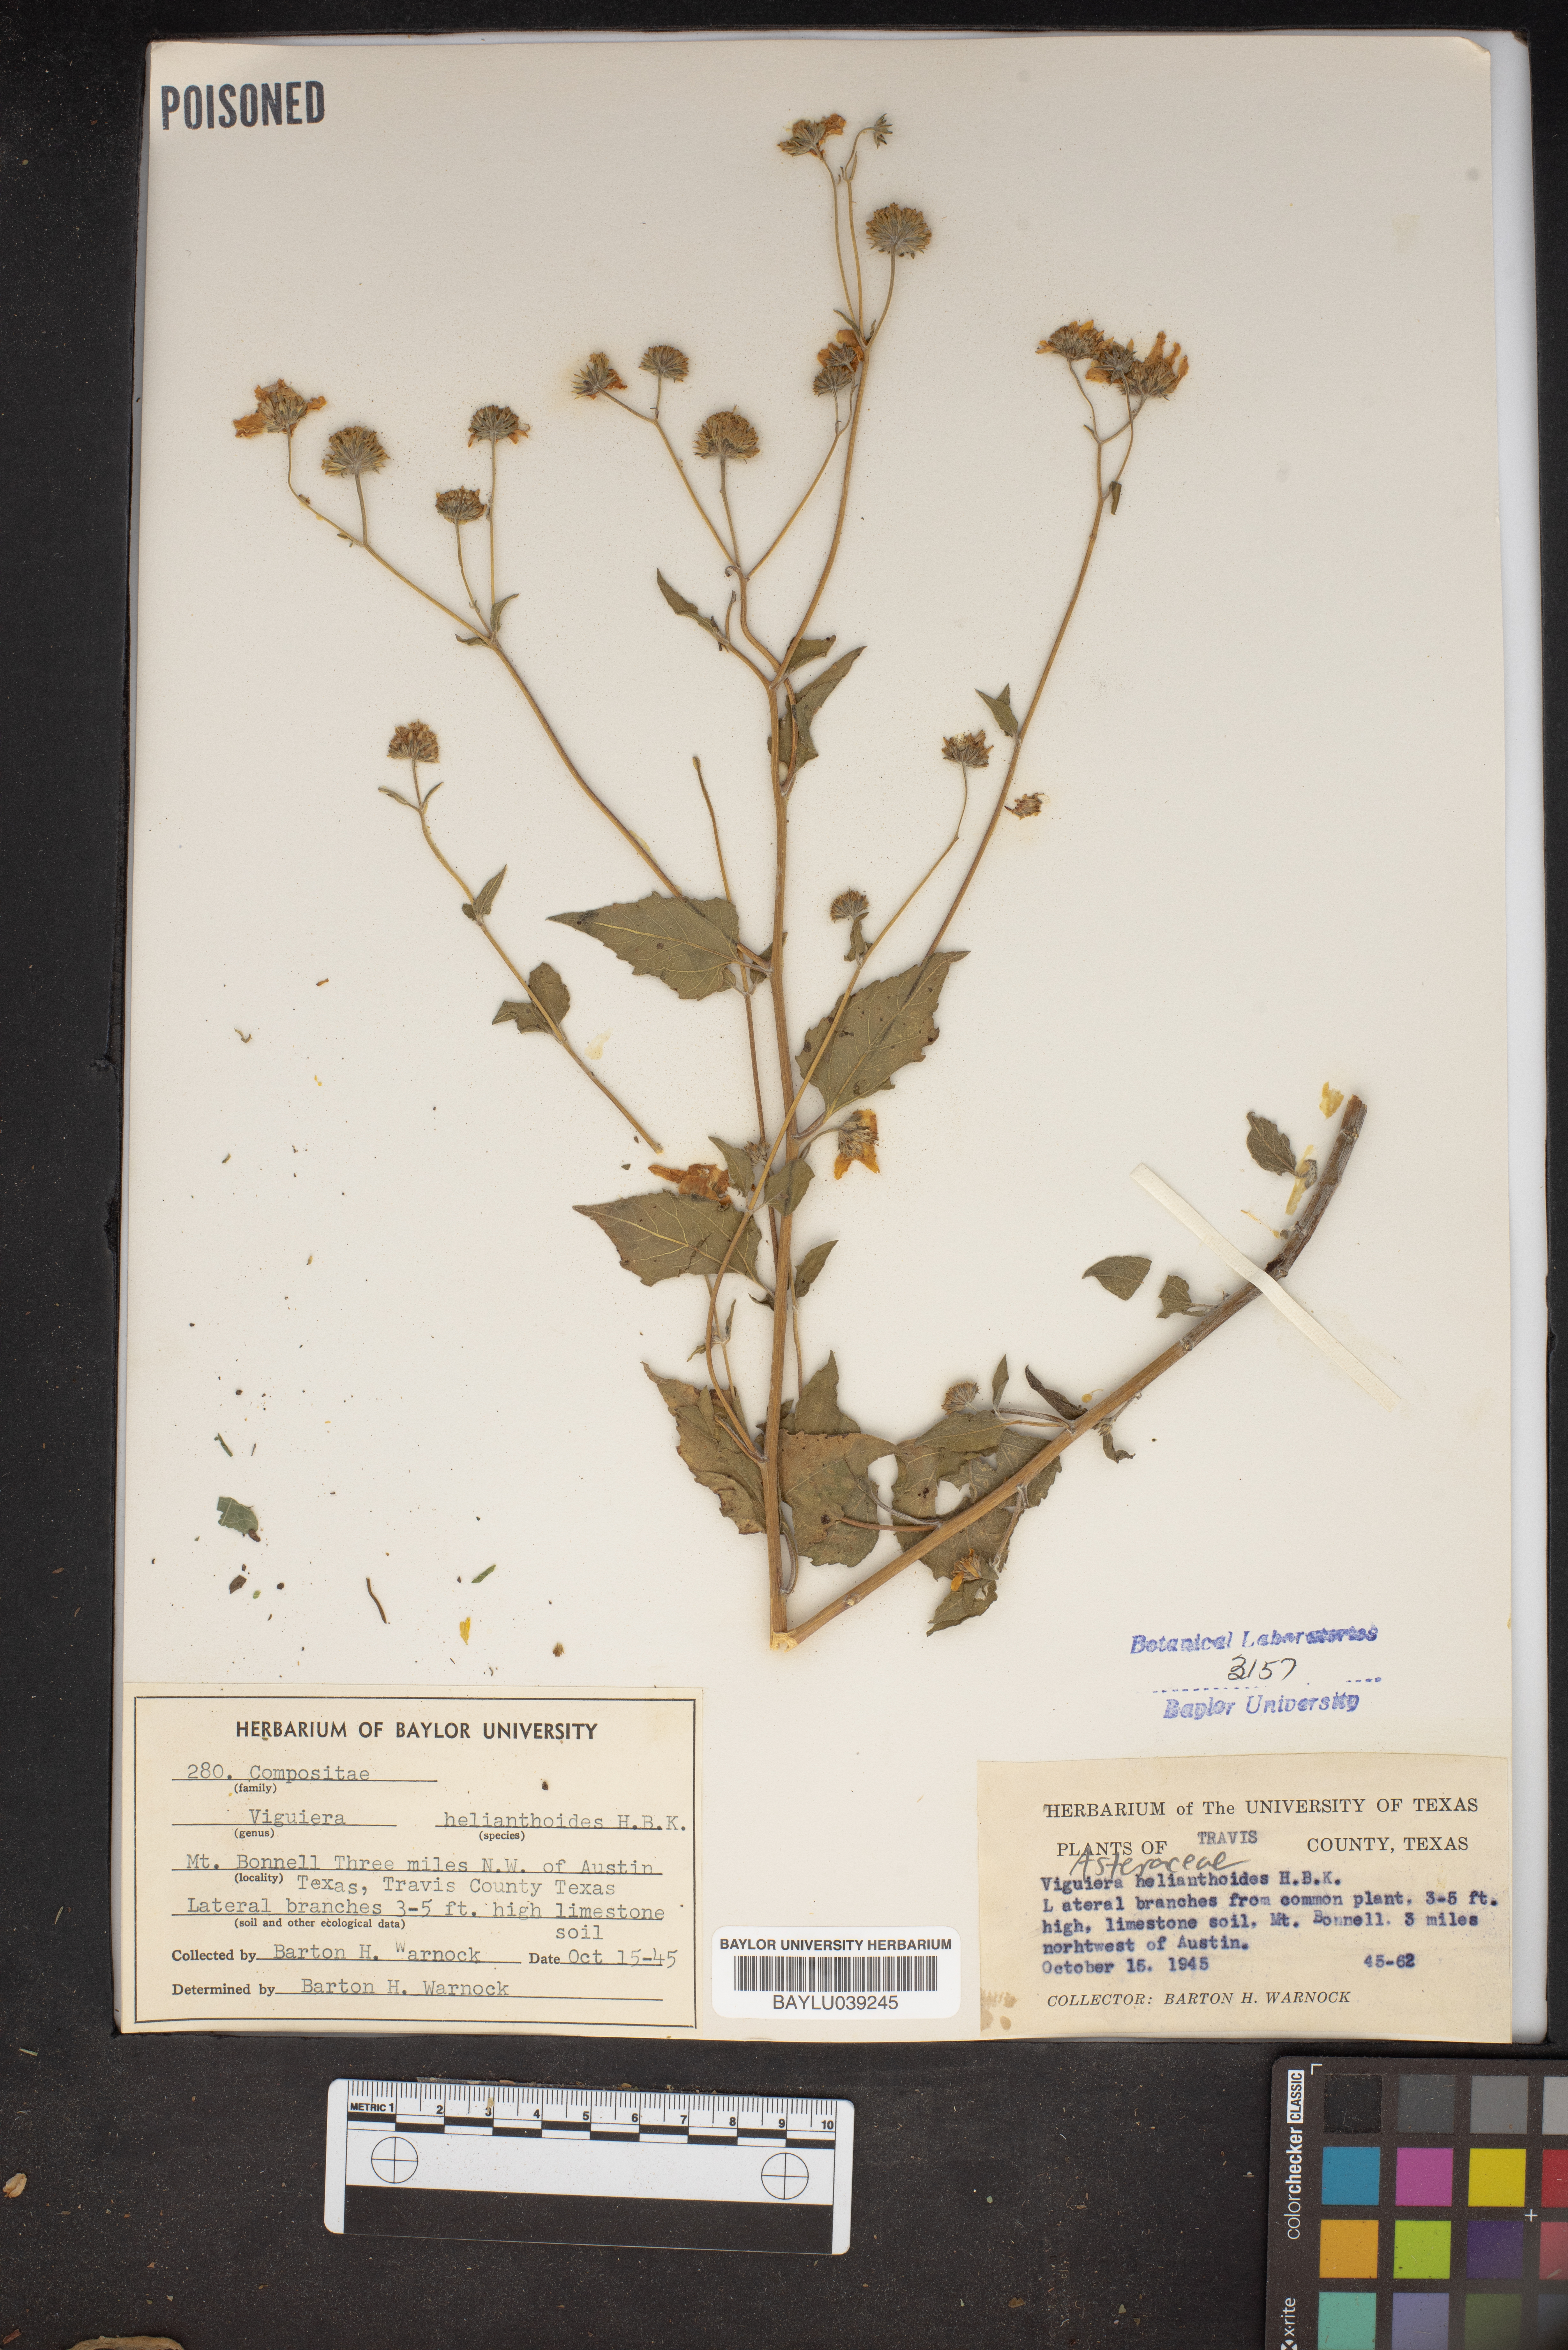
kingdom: Plantae
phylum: Tracheophyta
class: Magnoliopsida
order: Asterales
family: Asteraceae
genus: Viguiera
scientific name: Viguiera dentata
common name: Toothleaf
